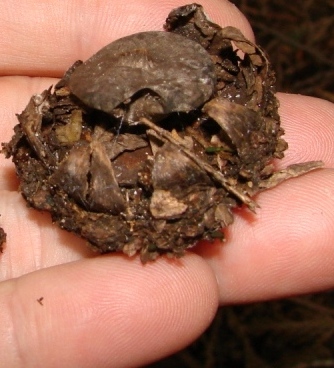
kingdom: Fungi
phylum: Basidiomycota
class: Agaricomycetes
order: Geastrales
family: Geastraceae
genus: Geastrum
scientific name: Geastrum striatum
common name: krave-stjernebold
